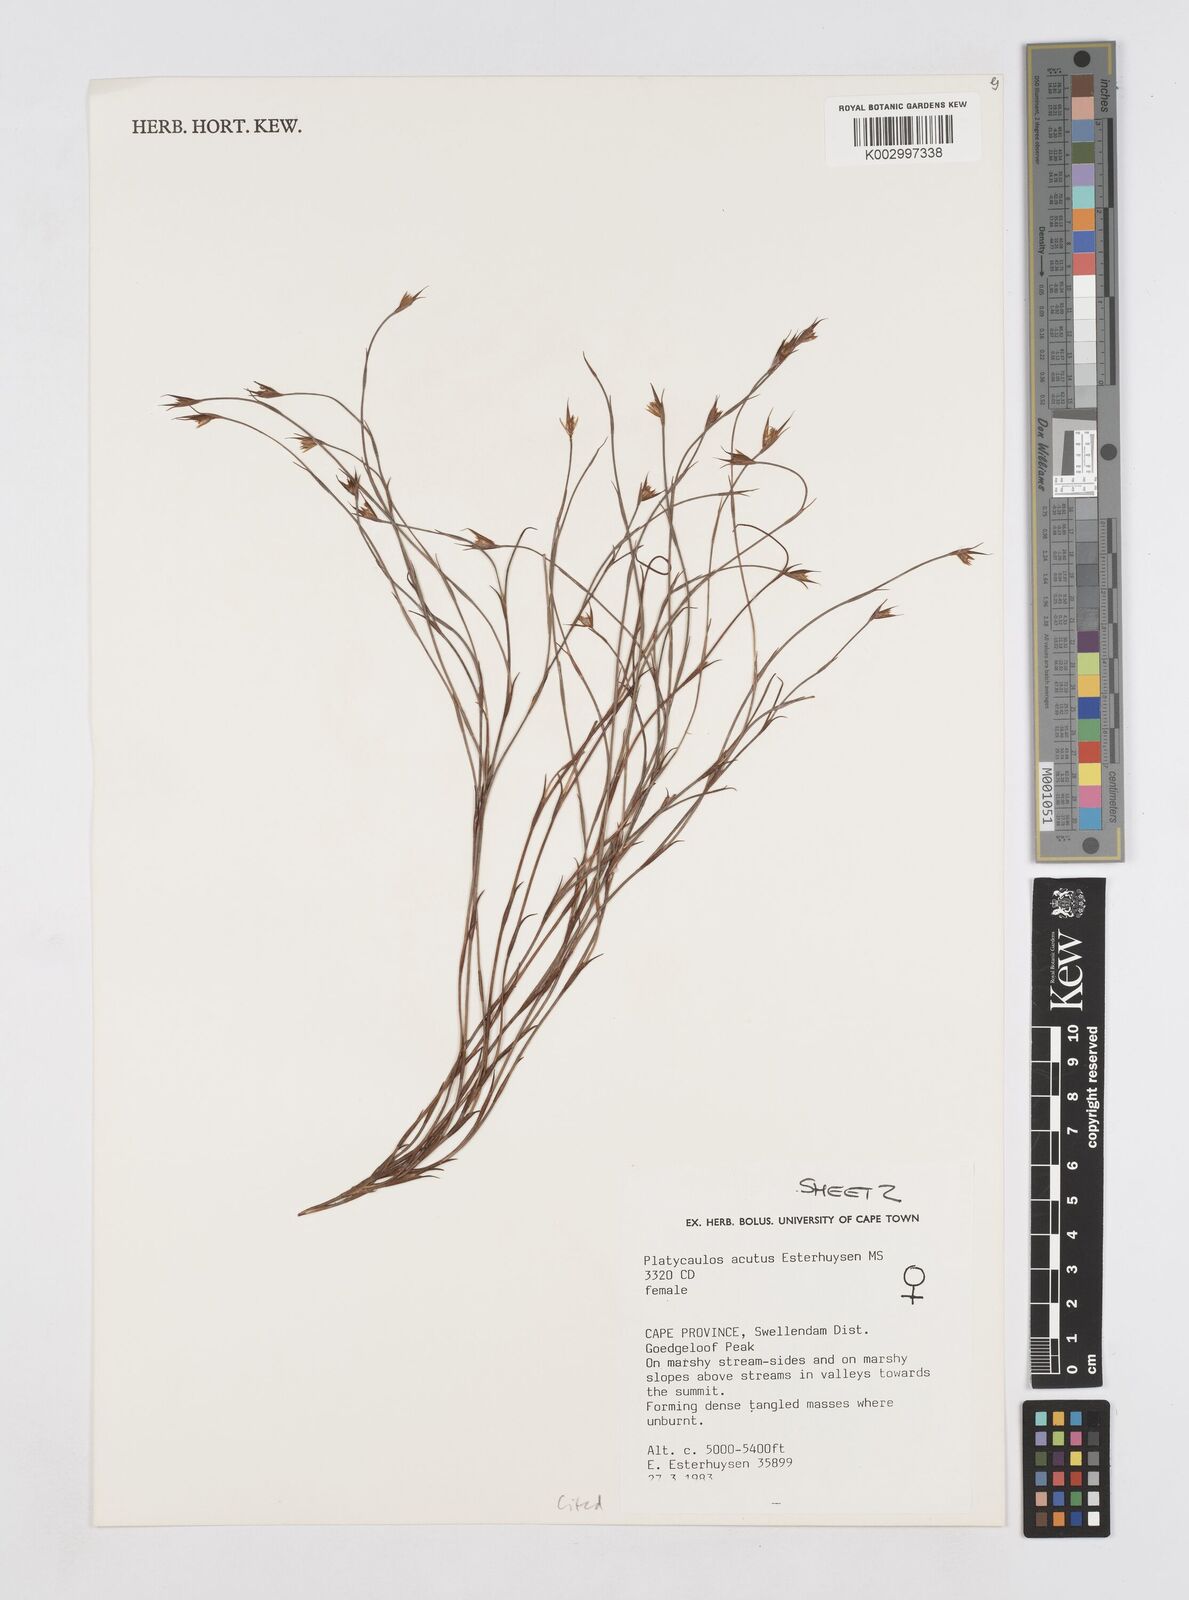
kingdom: Plantae
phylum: Tracheophyta
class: Liliopsida
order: Poales
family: Restionaceae
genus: Platycaulos
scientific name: Platycaulos acutus
